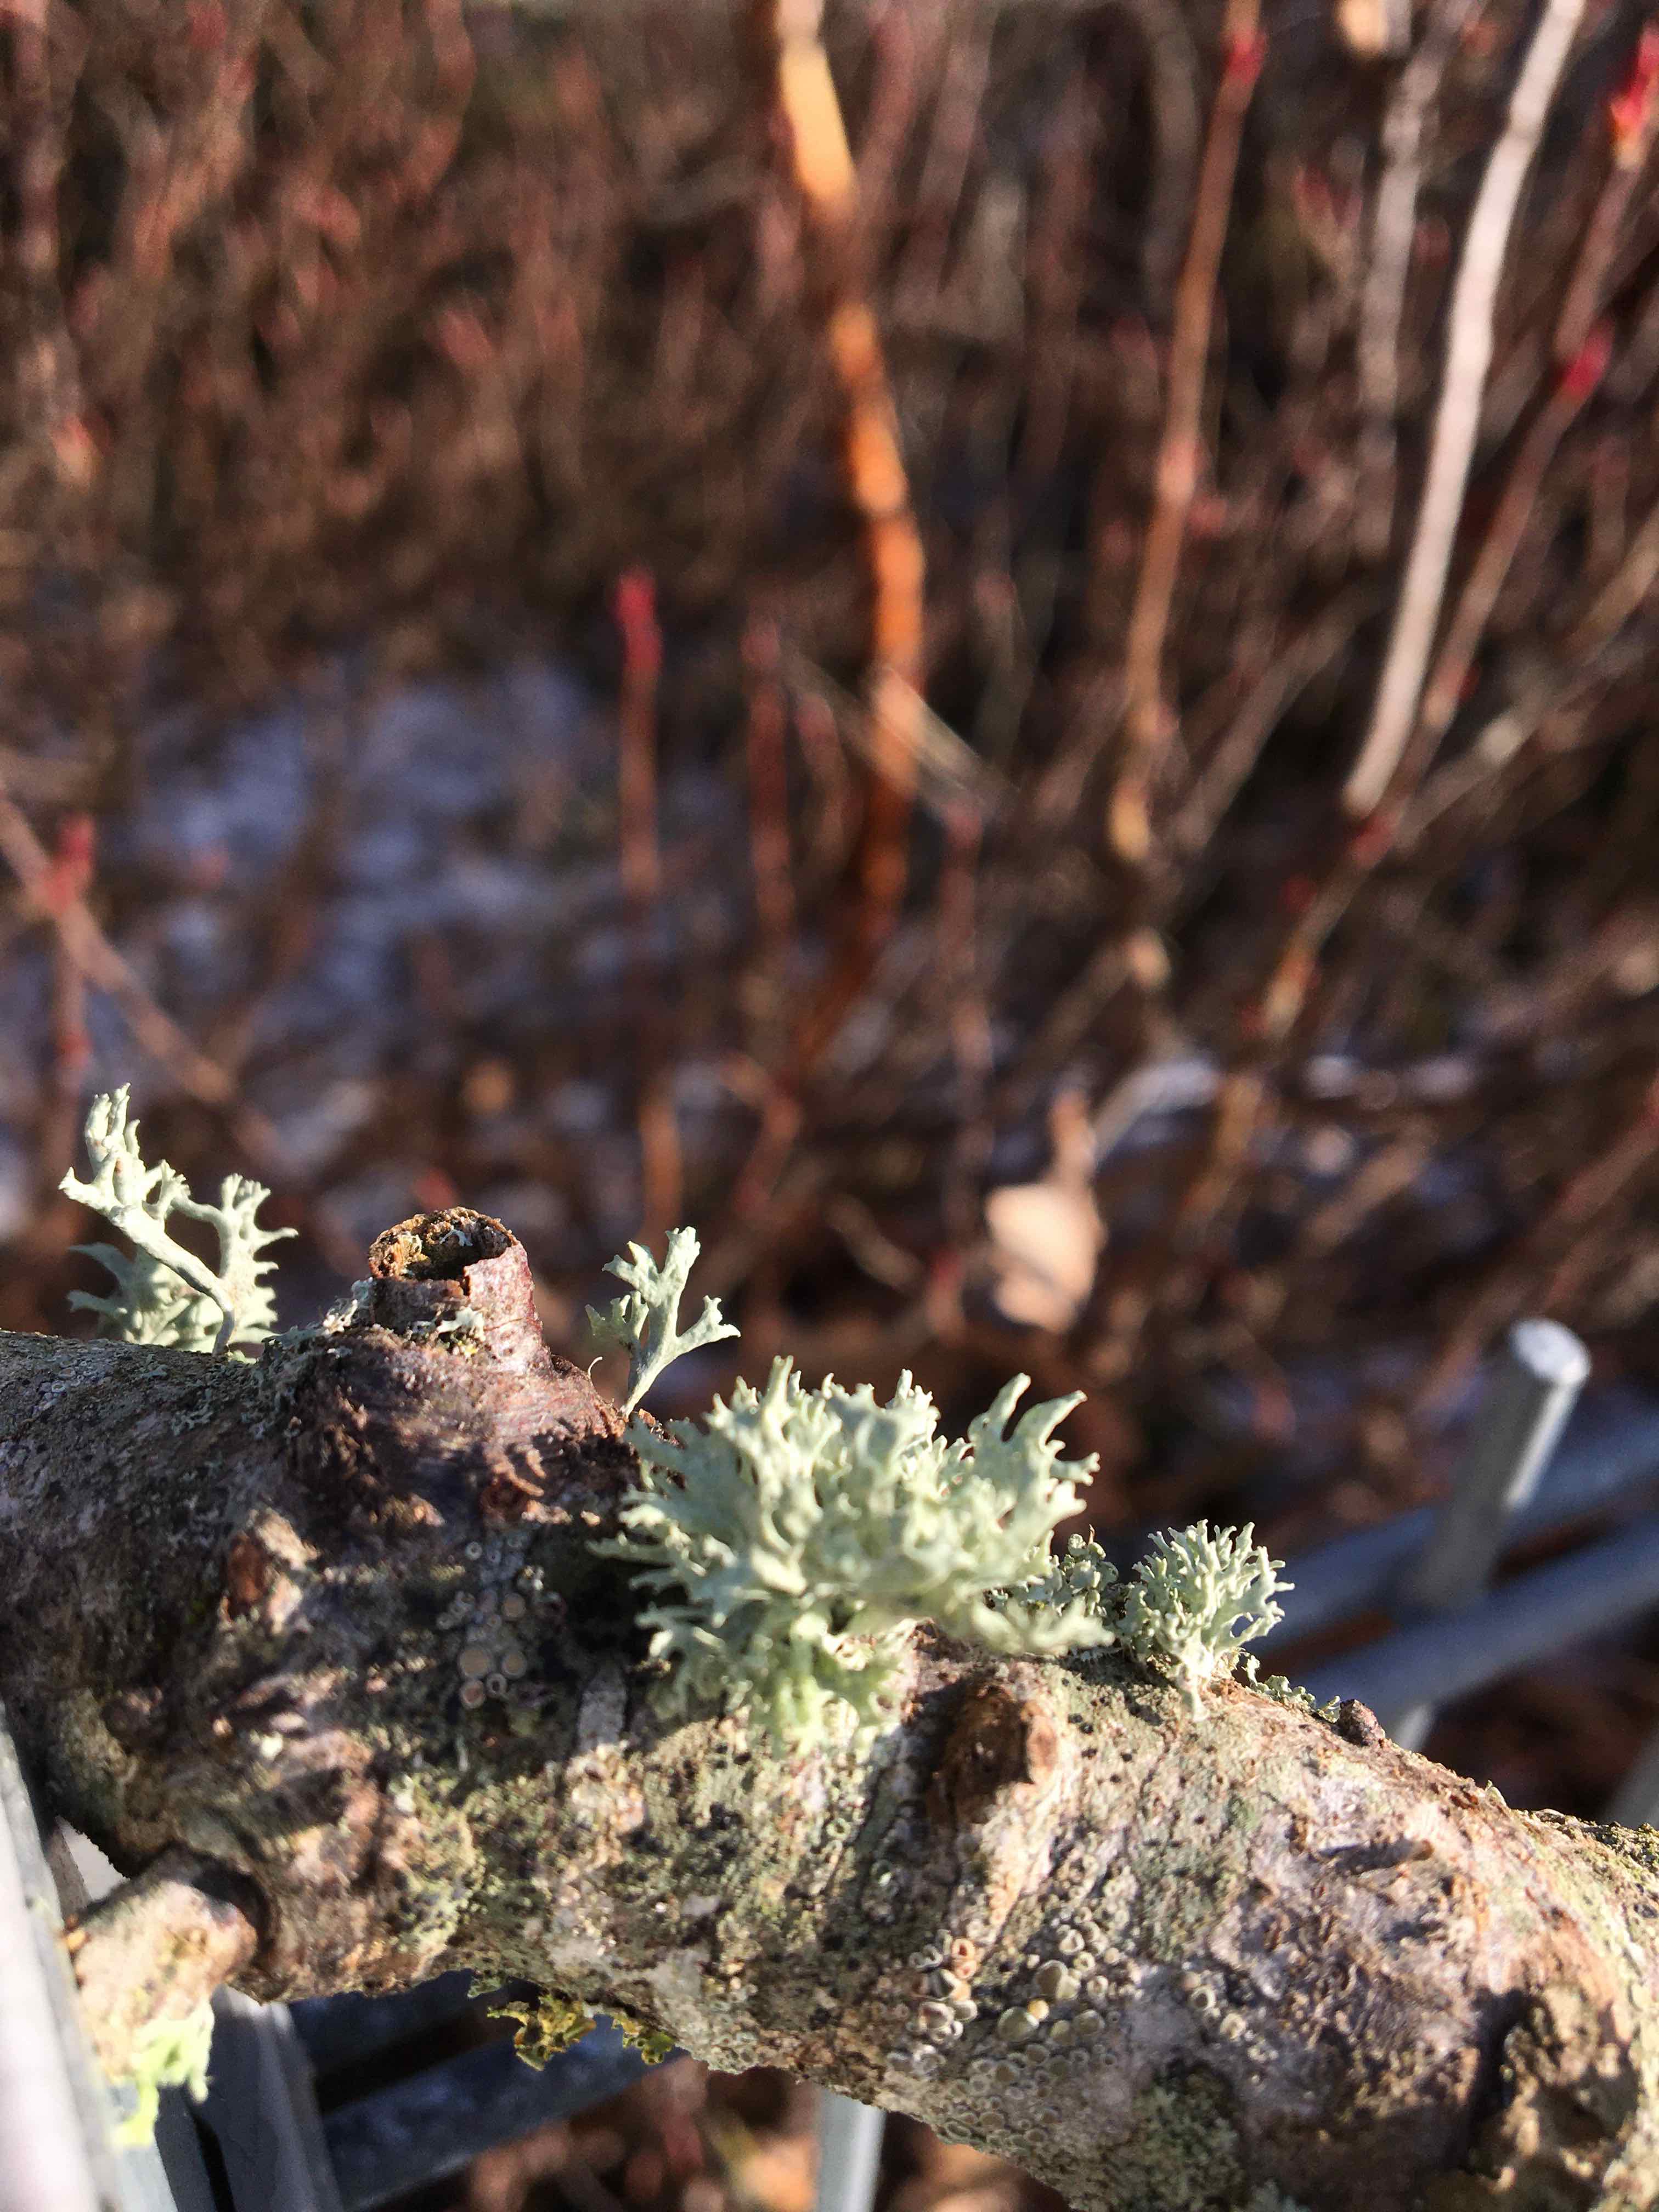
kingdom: Fungi
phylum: Ascomycota
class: Lecanoromycetes
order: Lecanorales
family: Ramalinaceae
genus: Ramalina
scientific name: Ramalina fastigiata
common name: tue-grenlav
